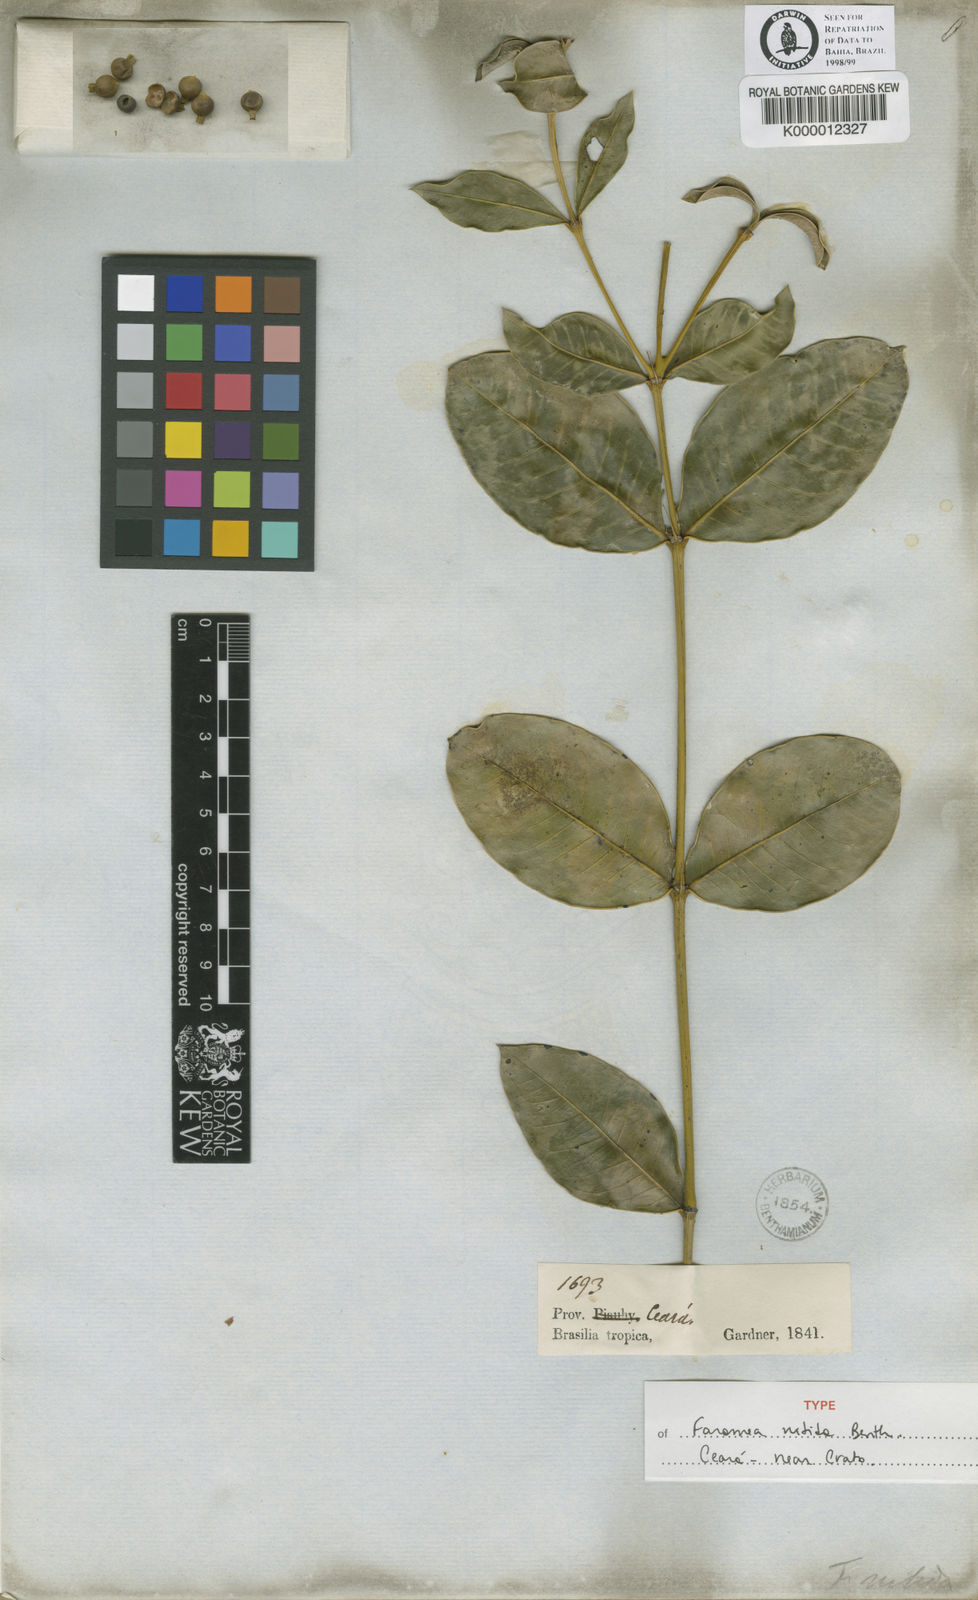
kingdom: Plantae
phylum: Tracheophyta
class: Magnoliopsida
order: Gentianales
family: Rubiaceae
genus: Faramea
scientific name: Faramea nitida
